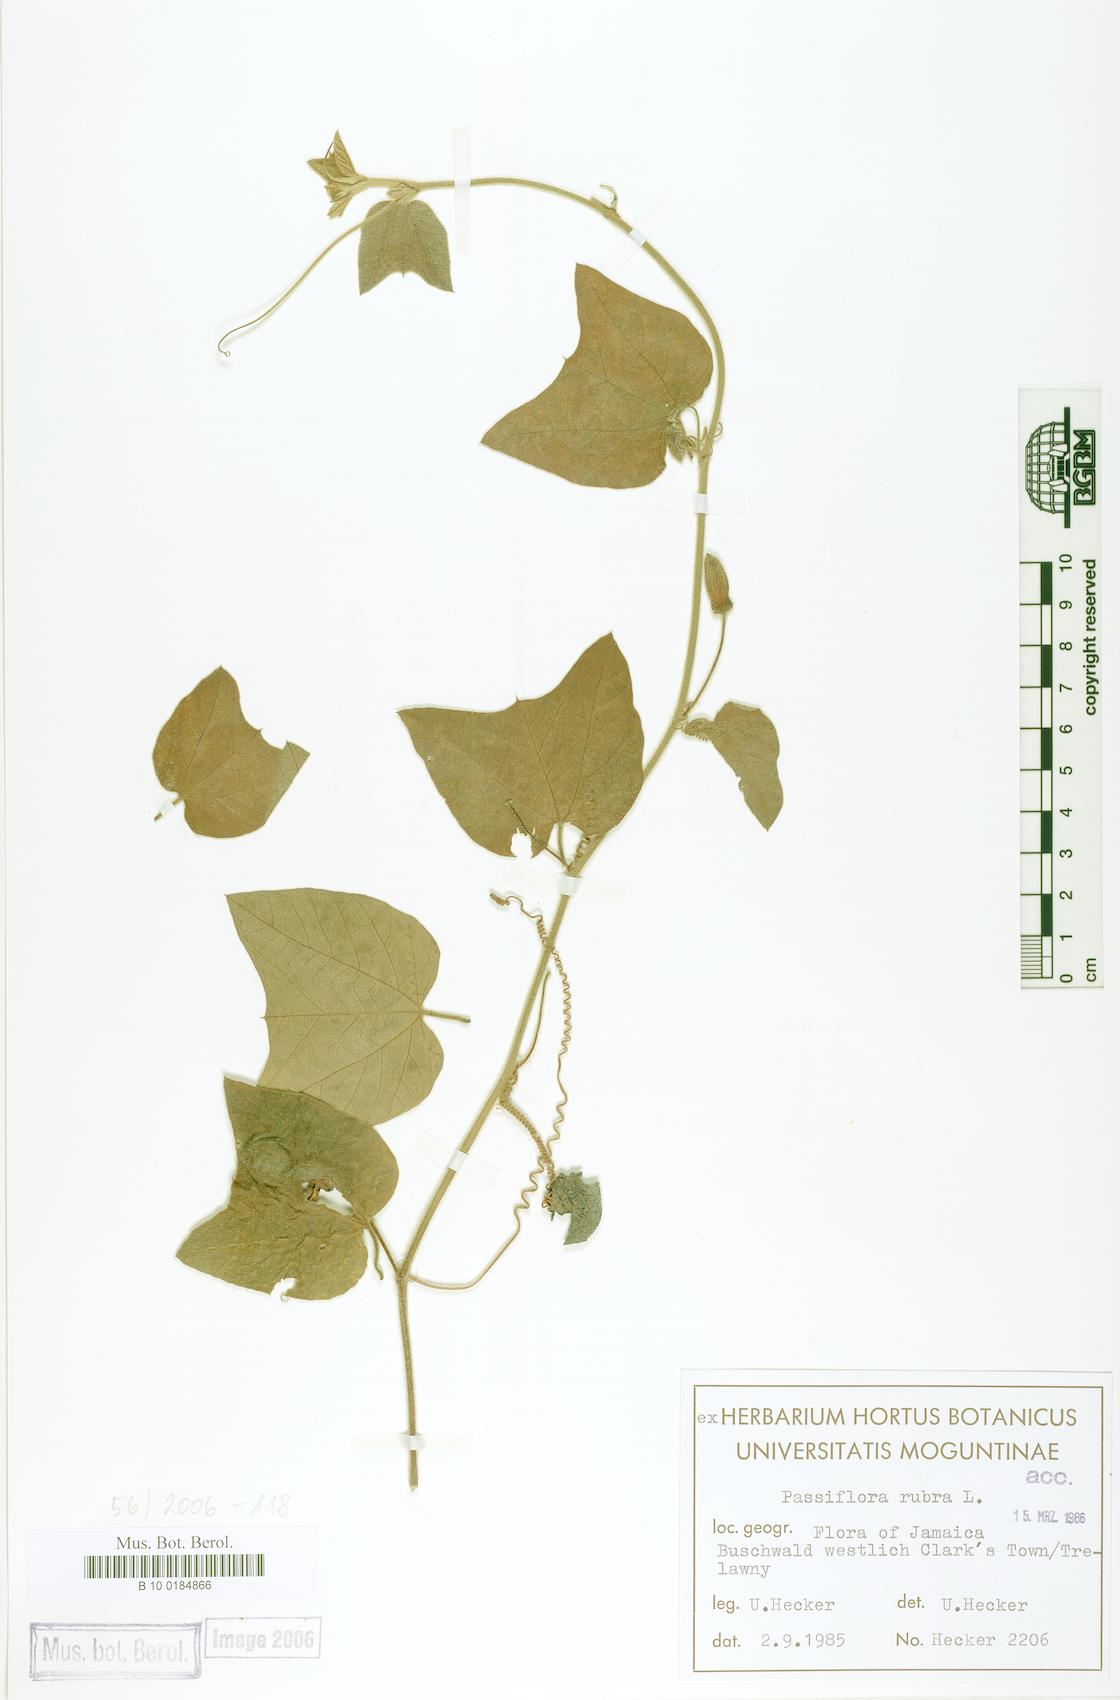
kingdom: Plantae
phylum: Tracheophyta
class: Magnoliopsida
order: Malpighiales
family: Passifloraceae
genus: Passiflora
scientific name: Passiflora rubra
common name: Snakeberry vine
